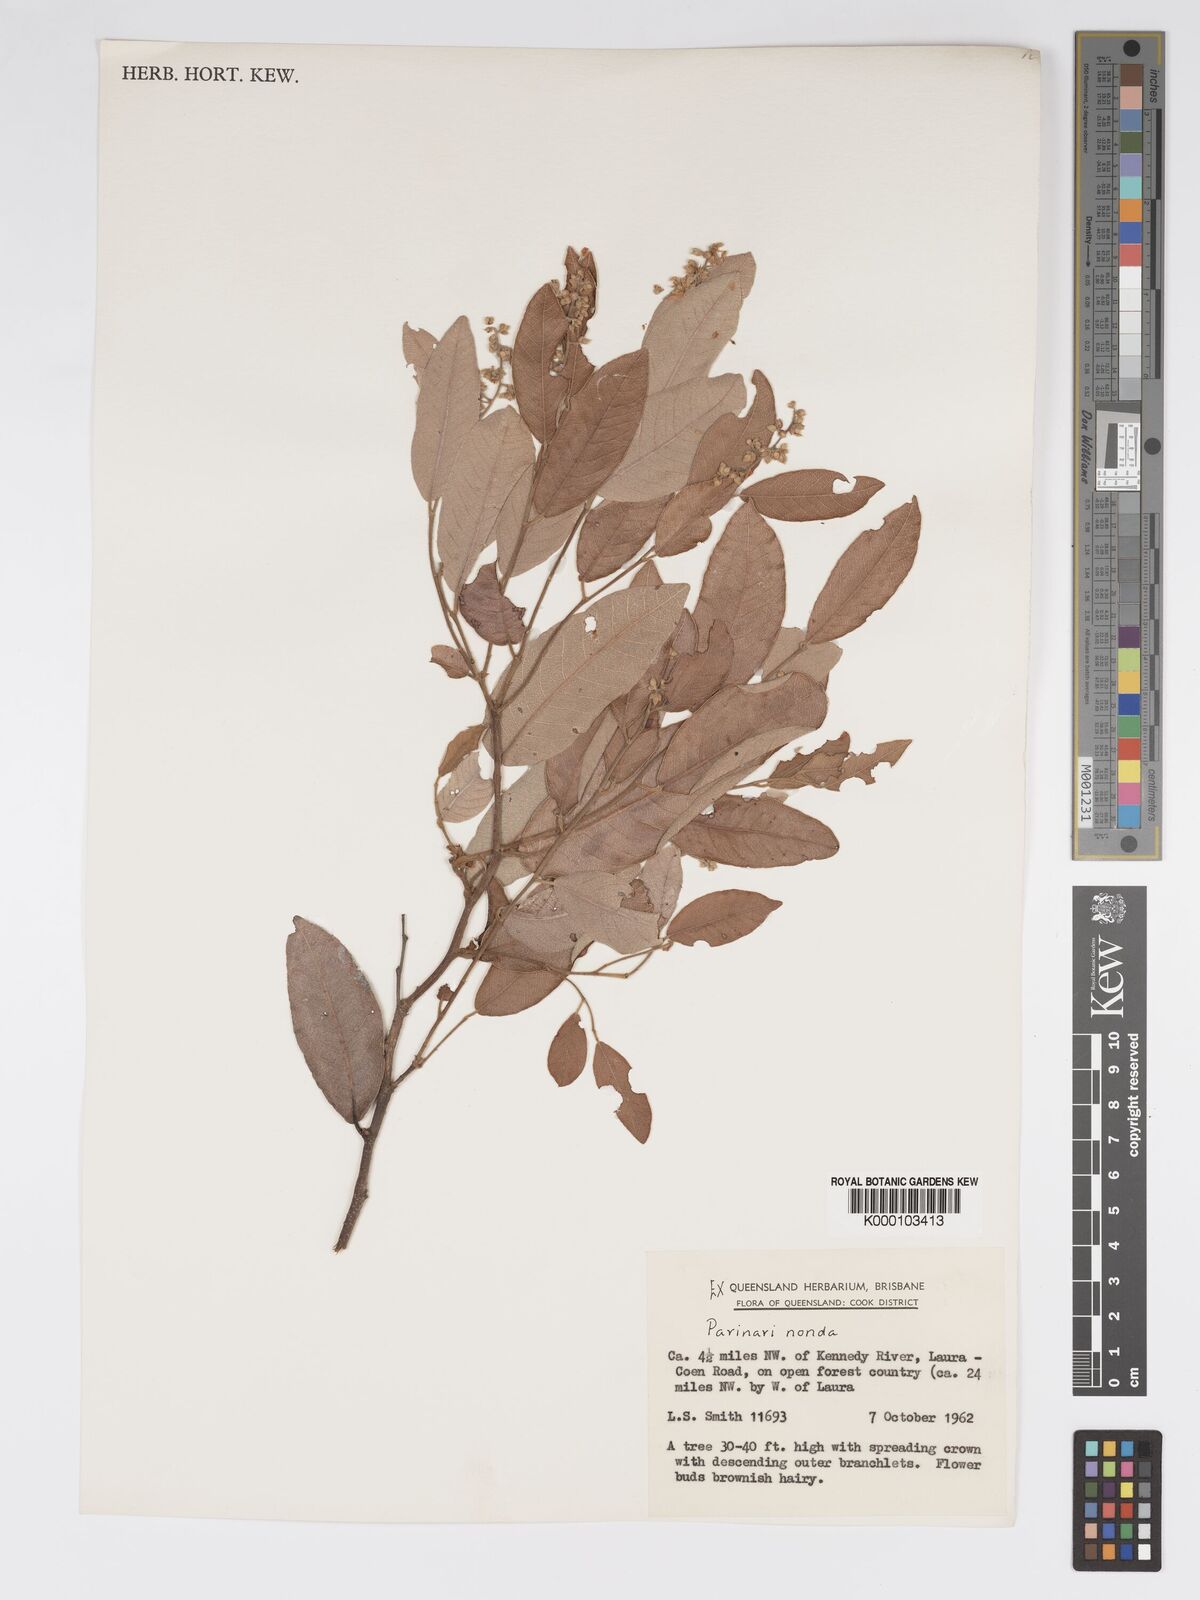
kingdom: Plantae
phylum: Tracheophyta
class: Magnoliopsida
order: Malpighiales
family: Chrysobalanaceae
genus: Parinari
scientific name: Parinari nonda
